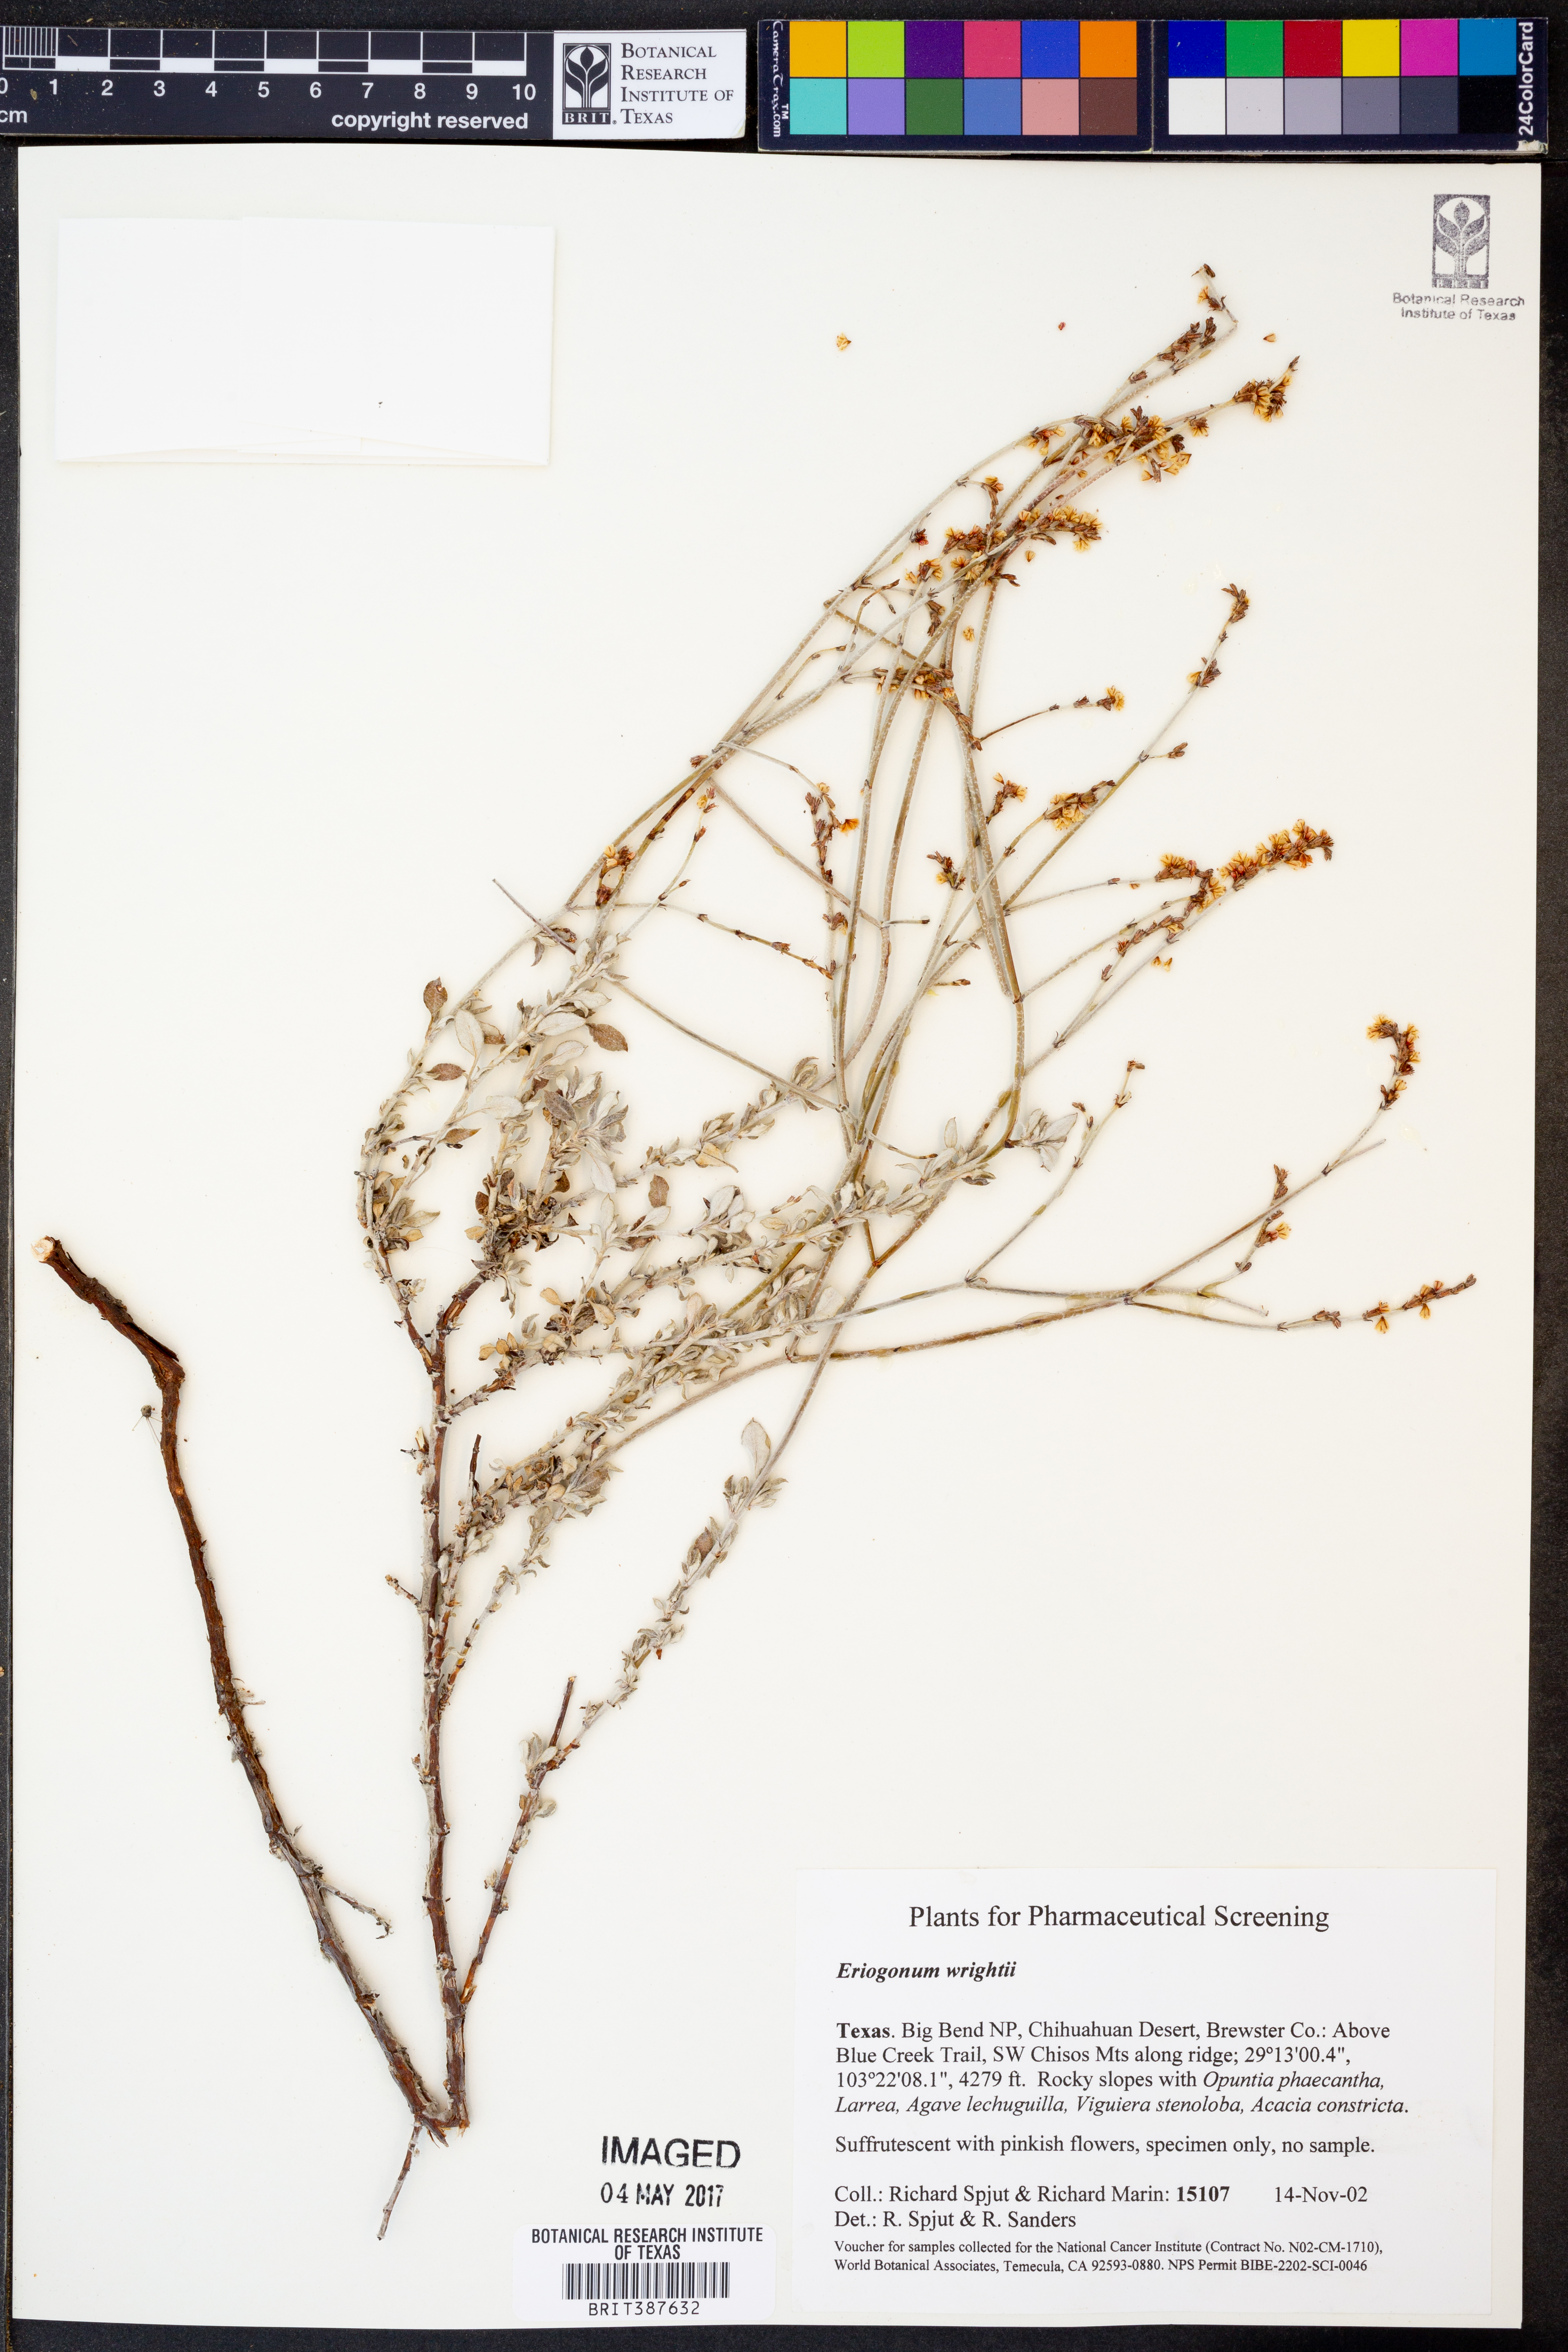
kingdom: Plantae
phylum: Tracheophyta
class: Magnoliopsida
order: Caryophyllales
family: Polygonaceae
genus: Eriogonum
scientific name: Eriogonum wrightii
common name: Bastard-sage
